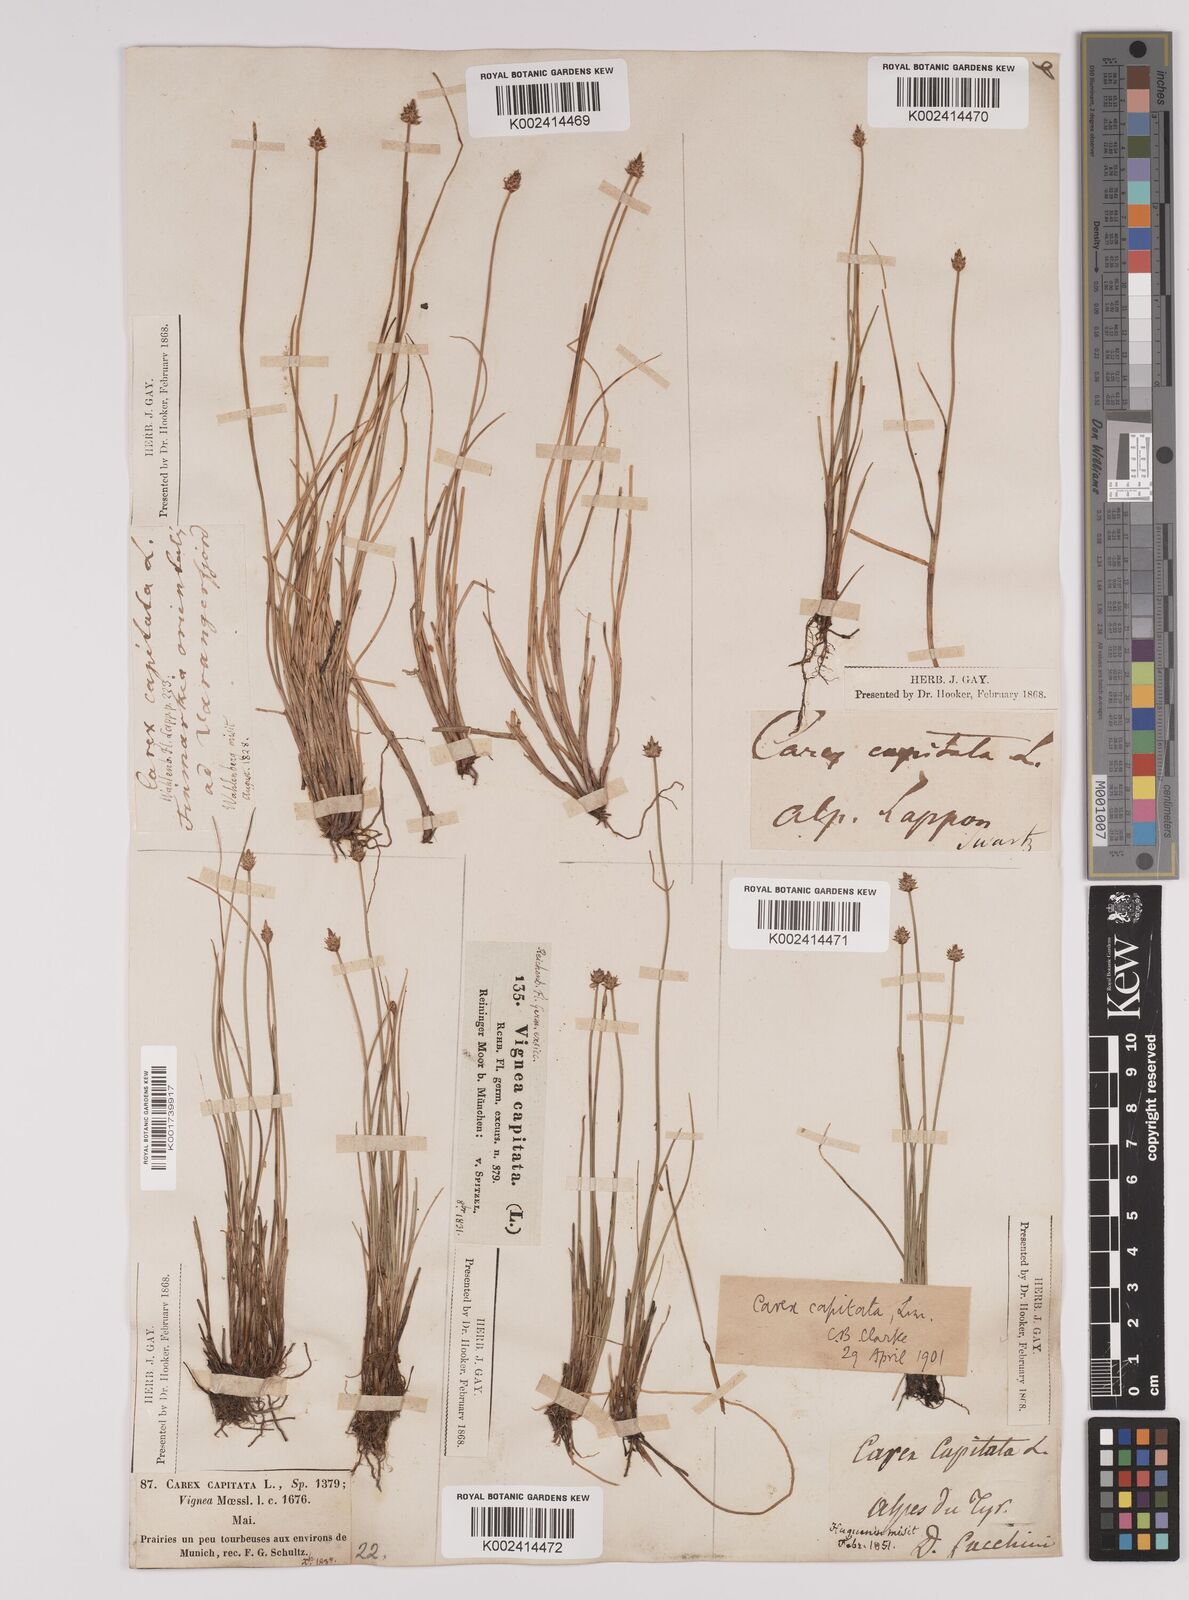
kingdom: Plantae
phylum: Tracheophyta
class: Liliopsida
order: Poales
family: Cyperaceae
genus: Carex
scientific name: Carex capitata
